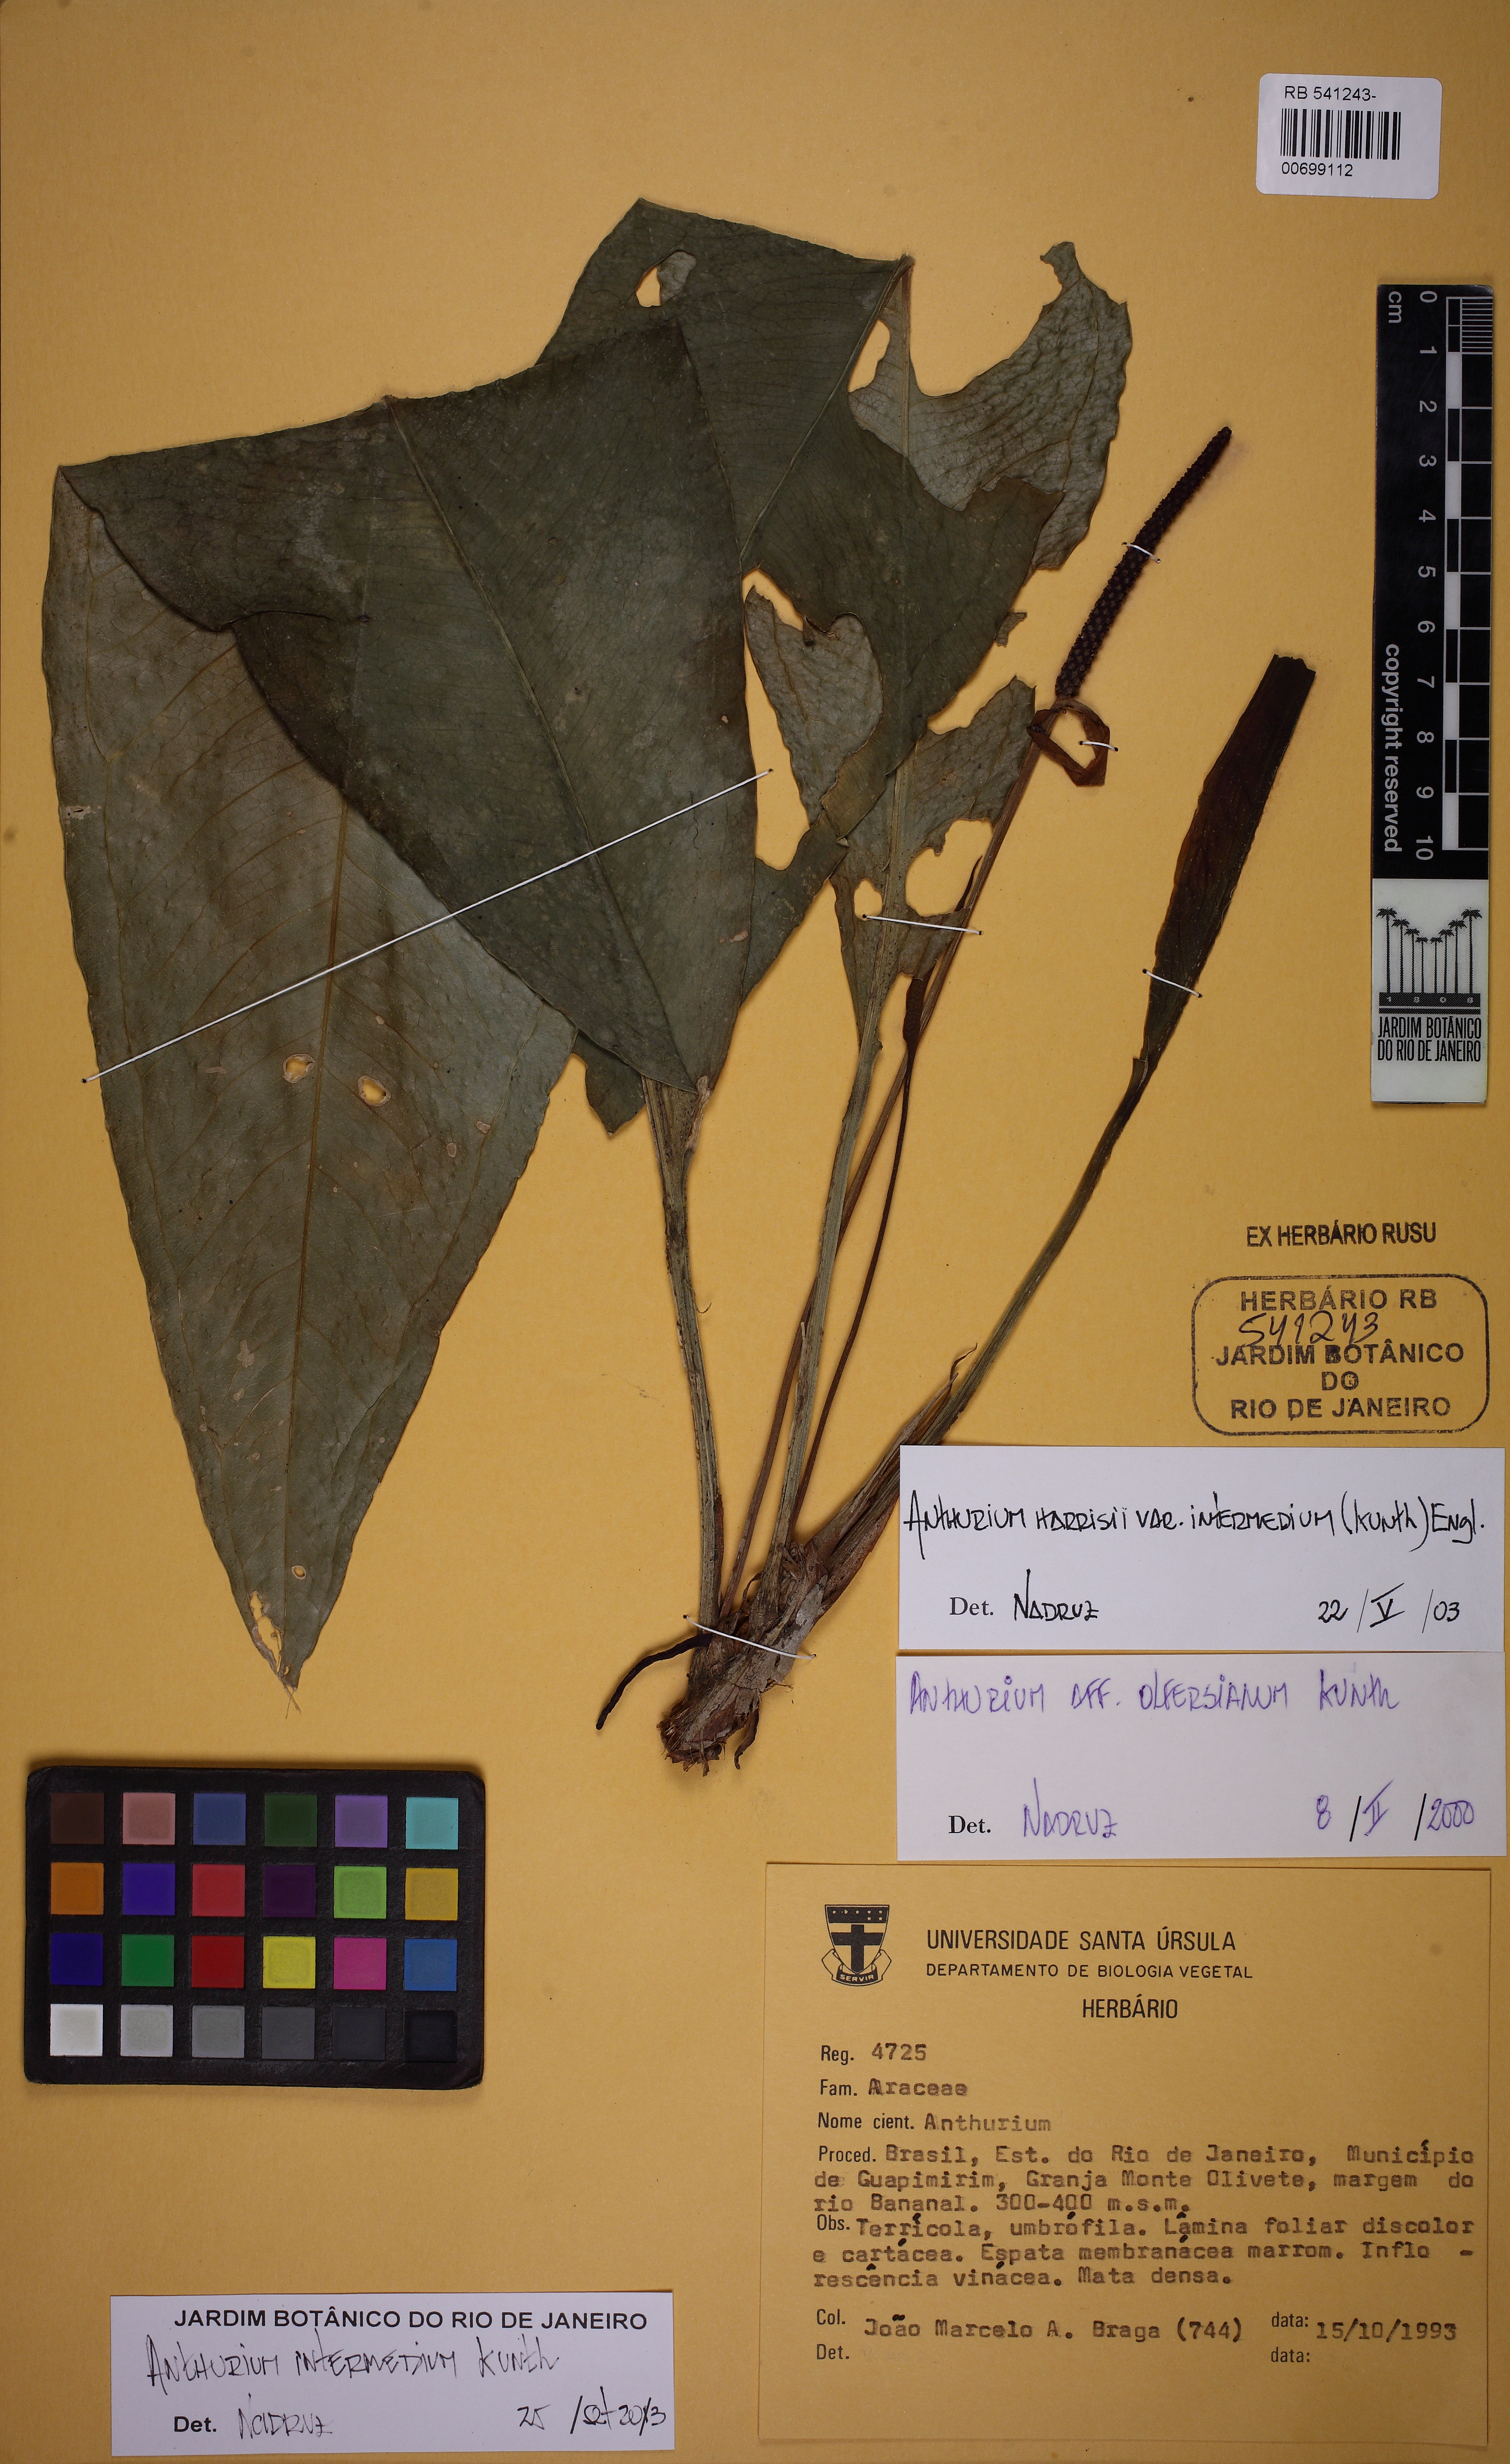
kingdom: Plantae
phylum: Tracheophyta
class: Liliopsida
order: Alismatales
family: Araceae
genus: Anthurium
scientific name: Anthurium intermedium
